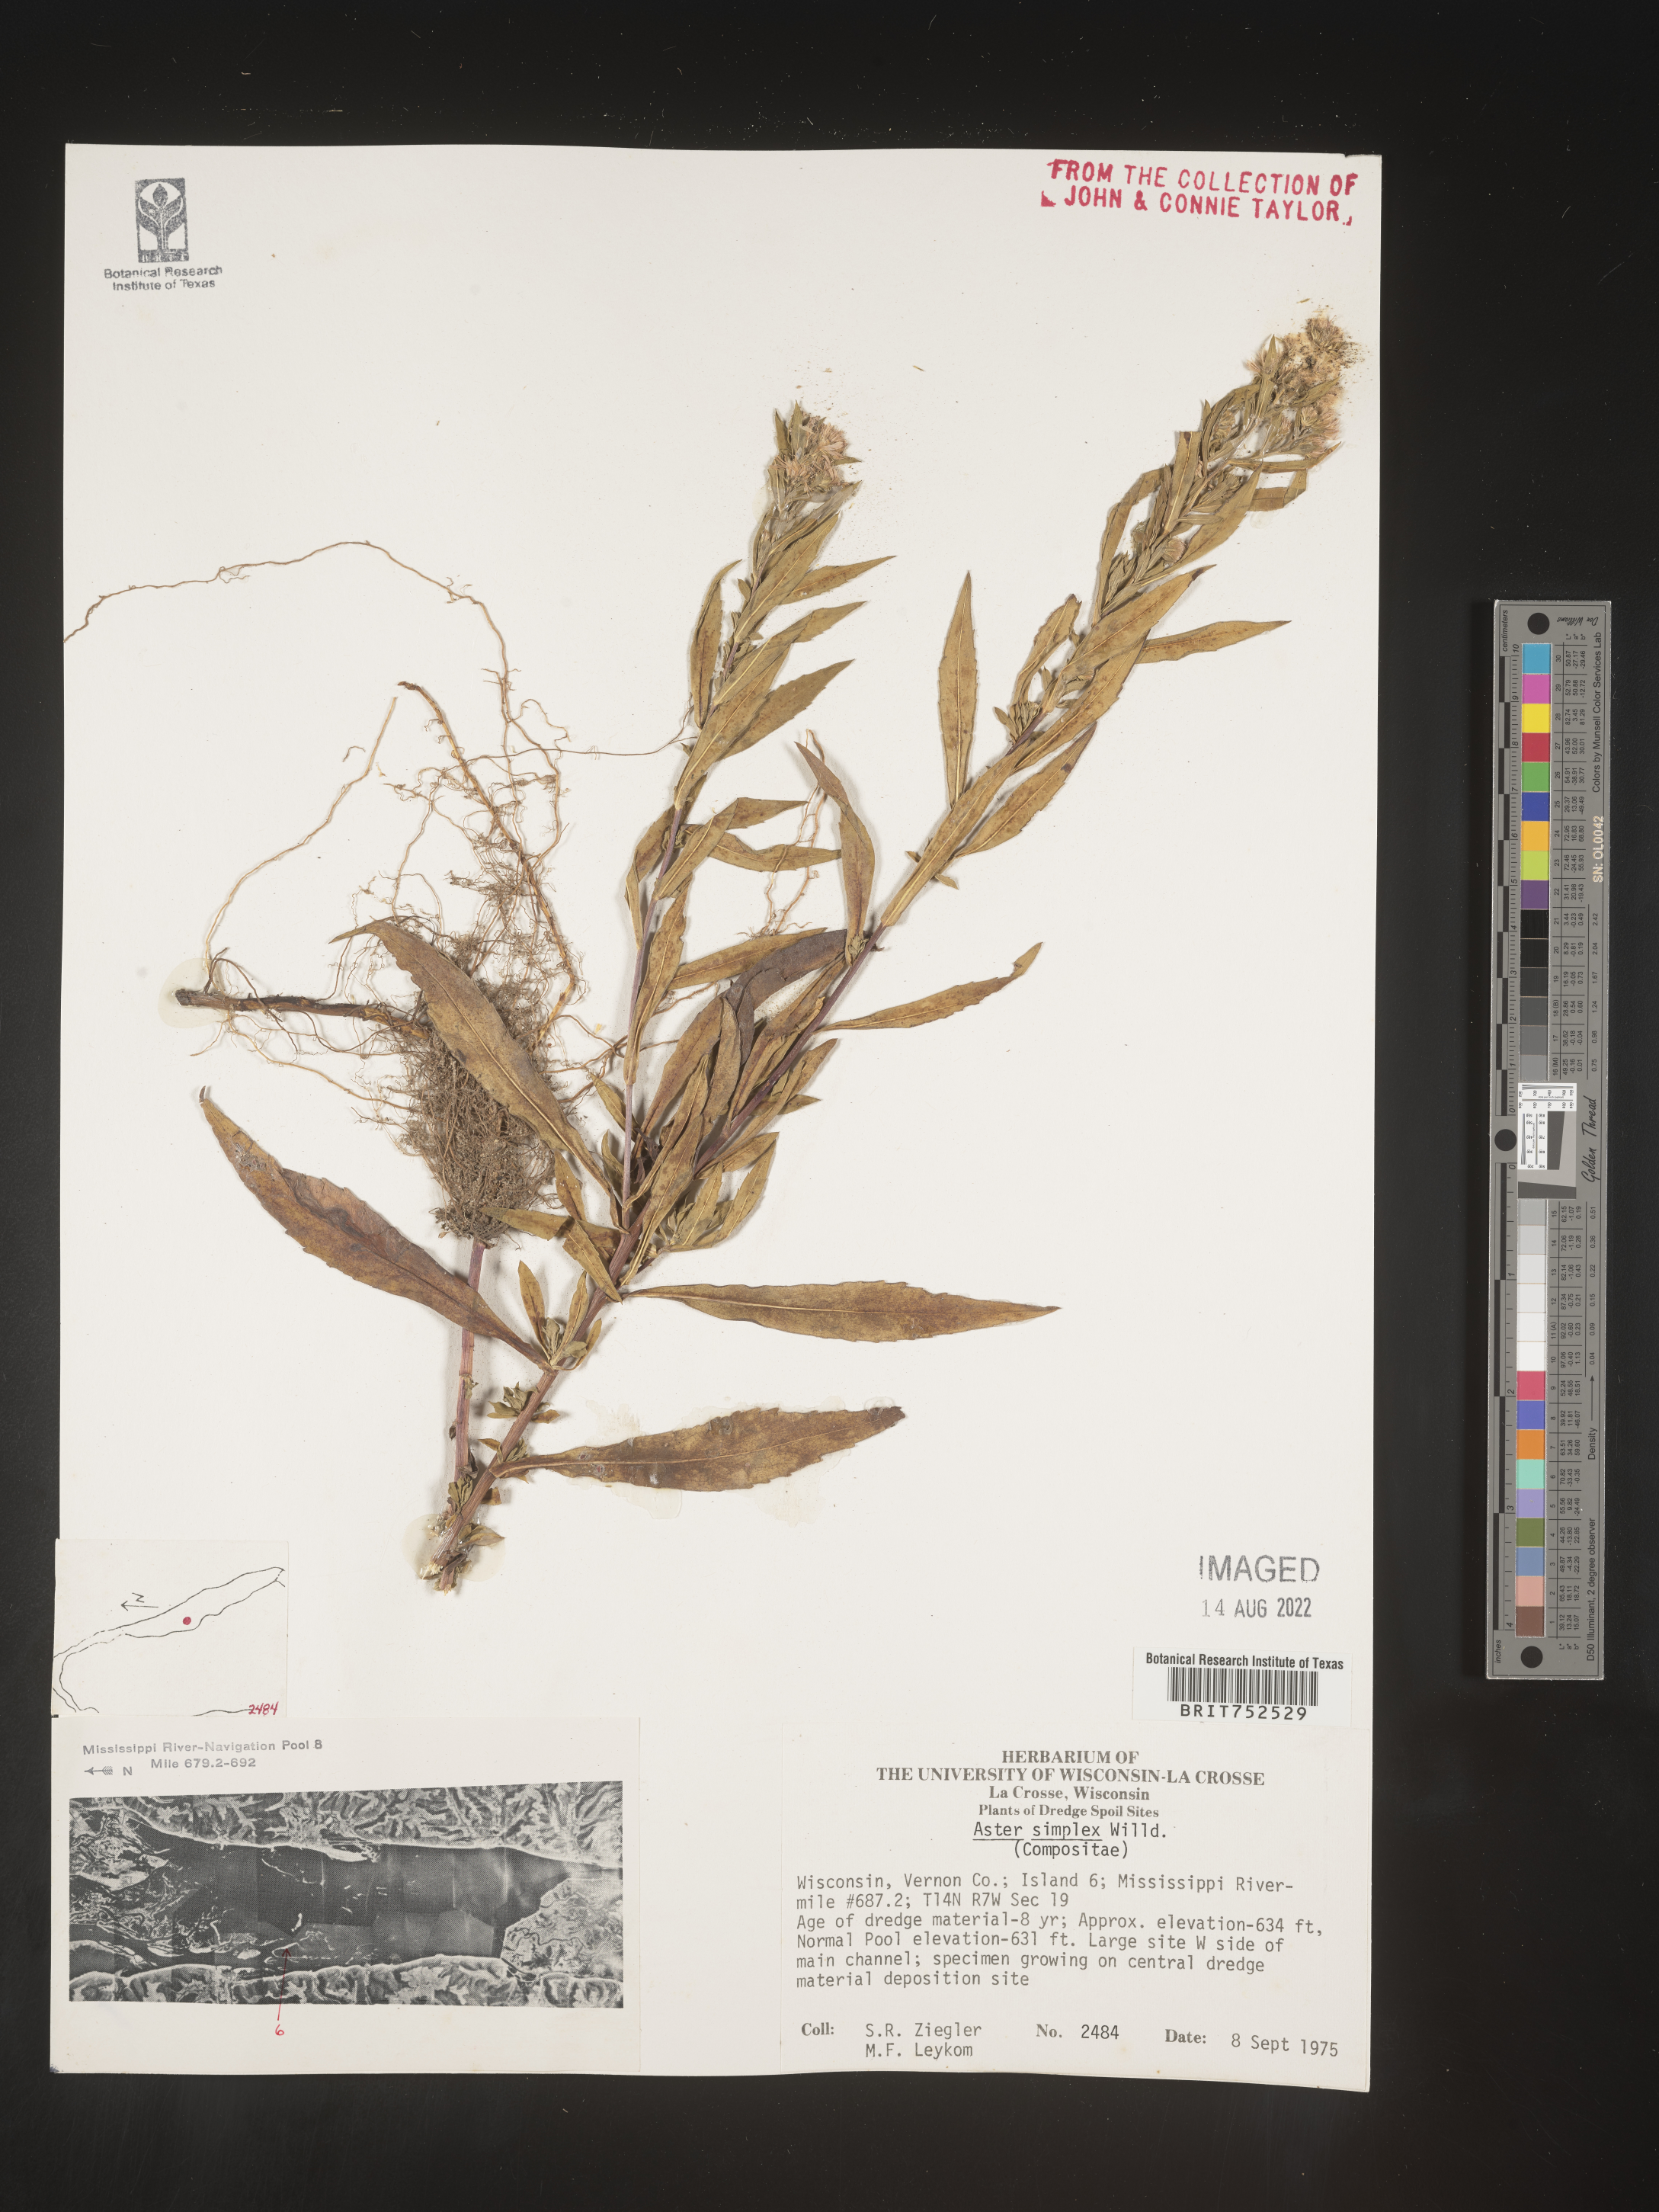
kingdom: Plantae
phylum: Tracheophyta
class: Magnoliopsida
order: Asterales
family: Asteraceae
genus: Symphyotrichum
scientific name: Symphyotrichum lanceolatum
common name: Panicled aster
